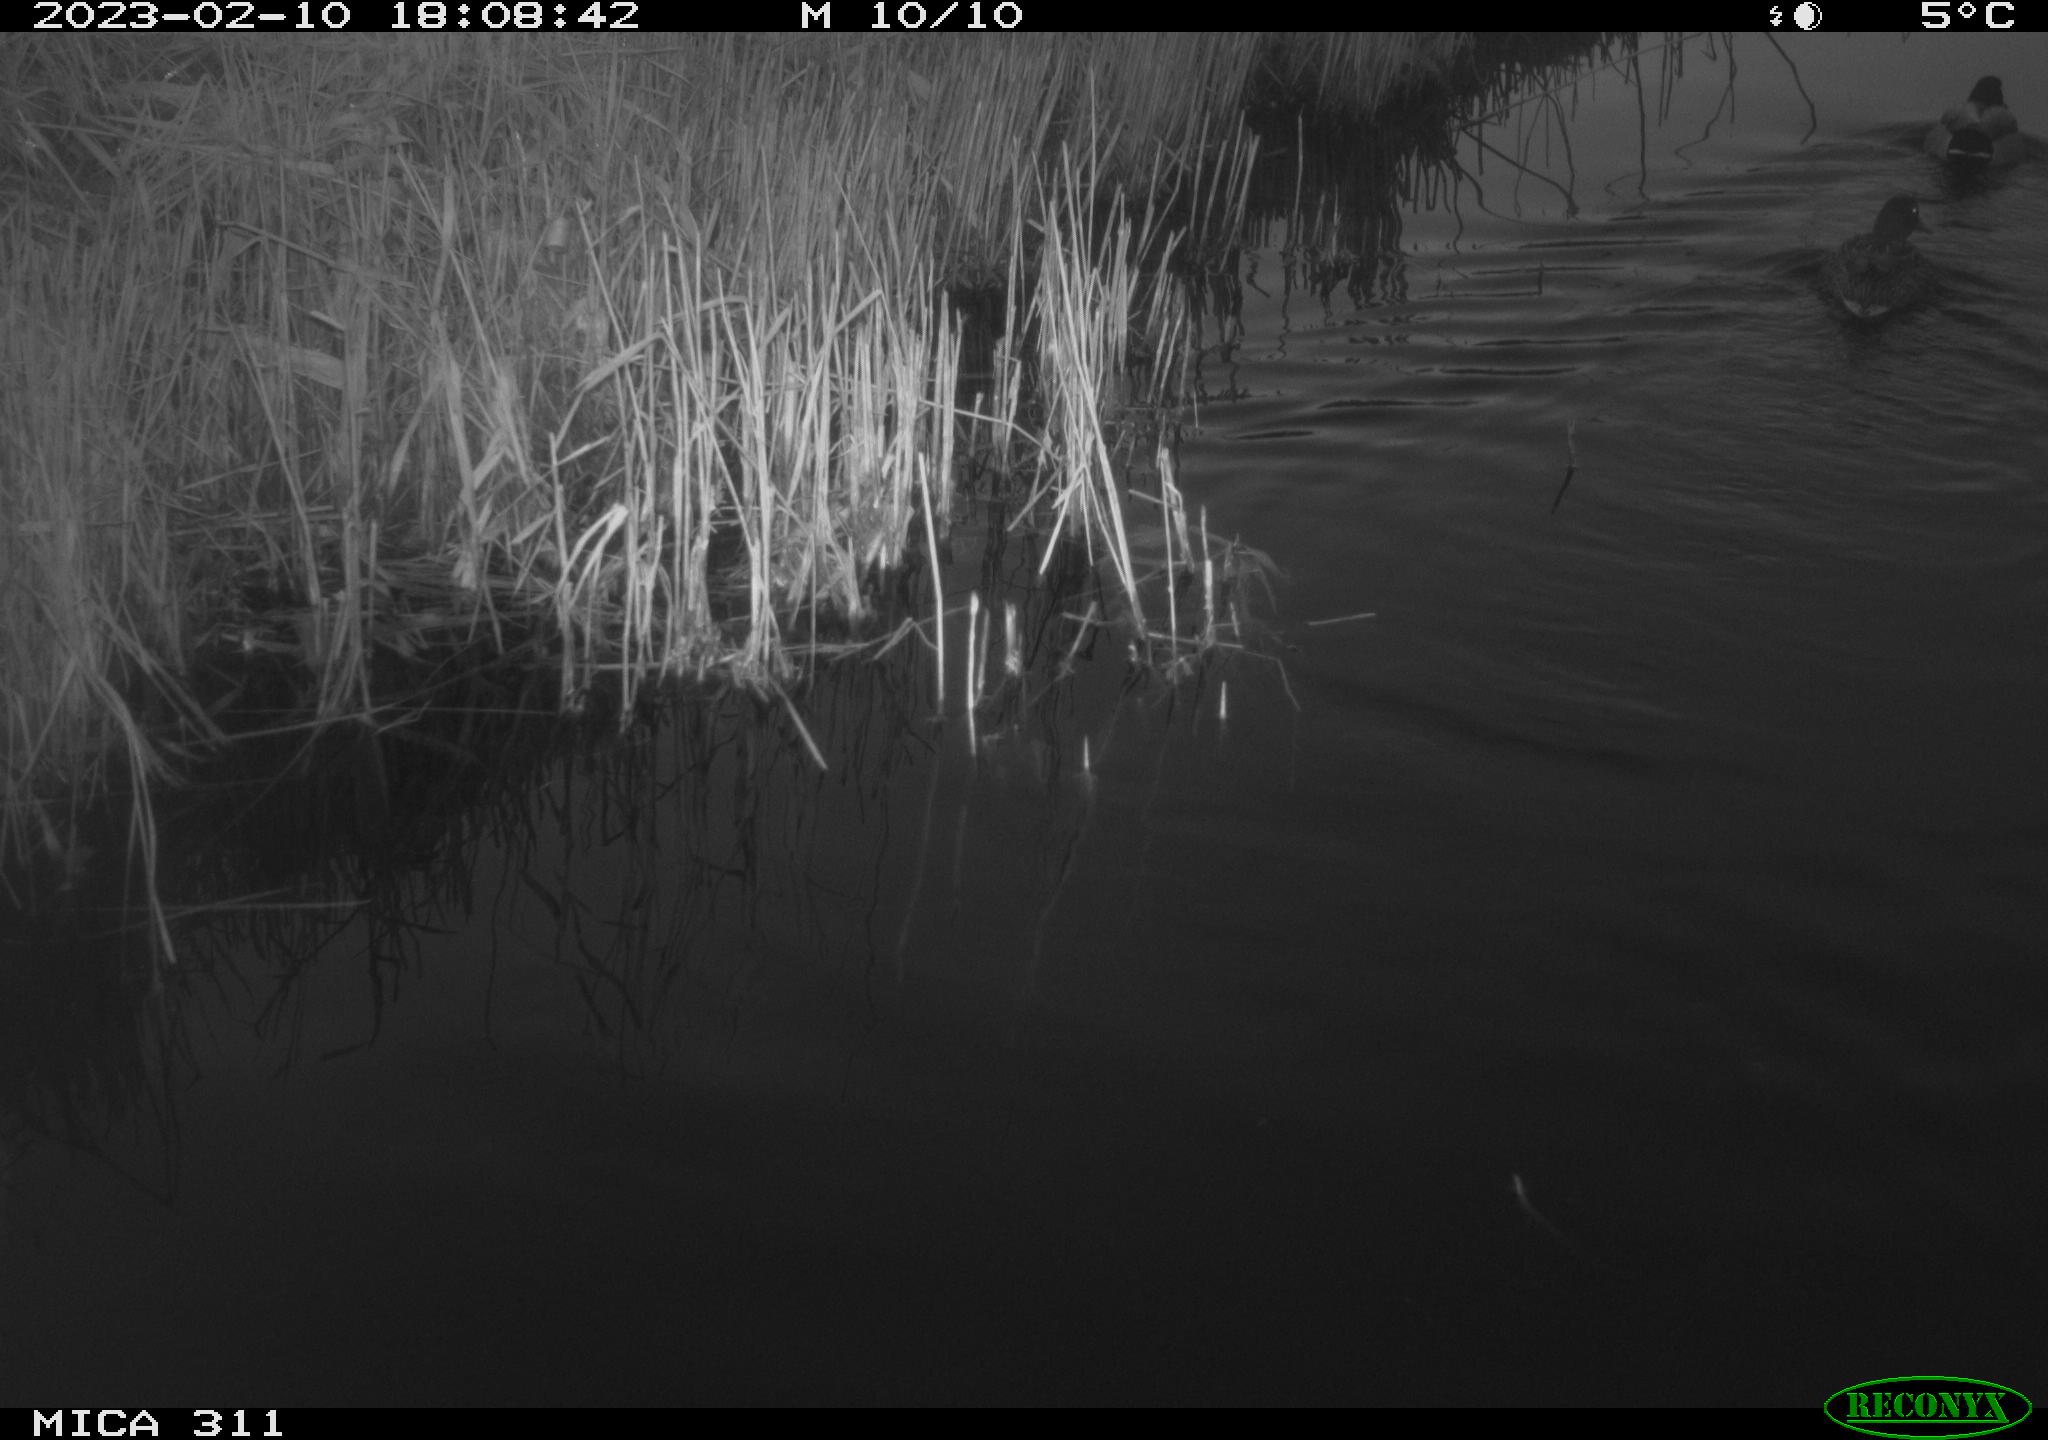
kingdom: Animalia
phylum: Chordata
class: Aves
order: Anseriformes
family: Anatidae
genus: Anas
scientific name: Anas
